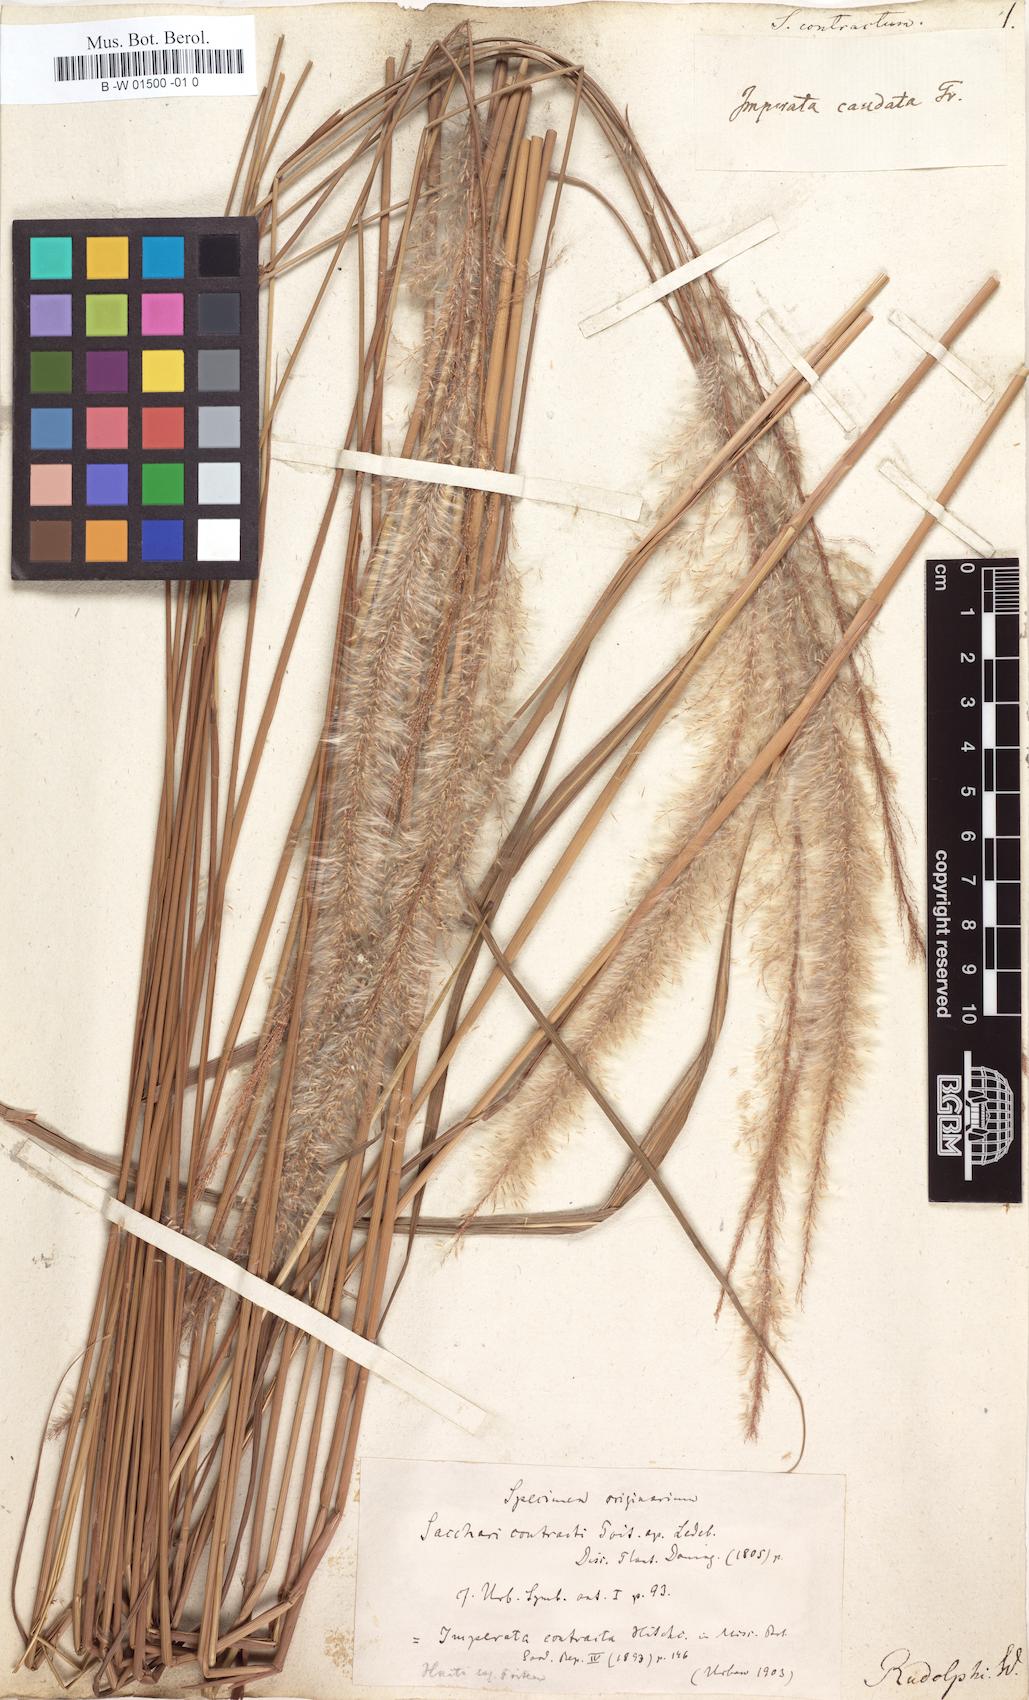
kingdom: Plantae
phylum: Tracheophyta
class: Liliopsida
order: Poales
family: Poaceae
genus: Imperata
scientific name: Imperata contracta
